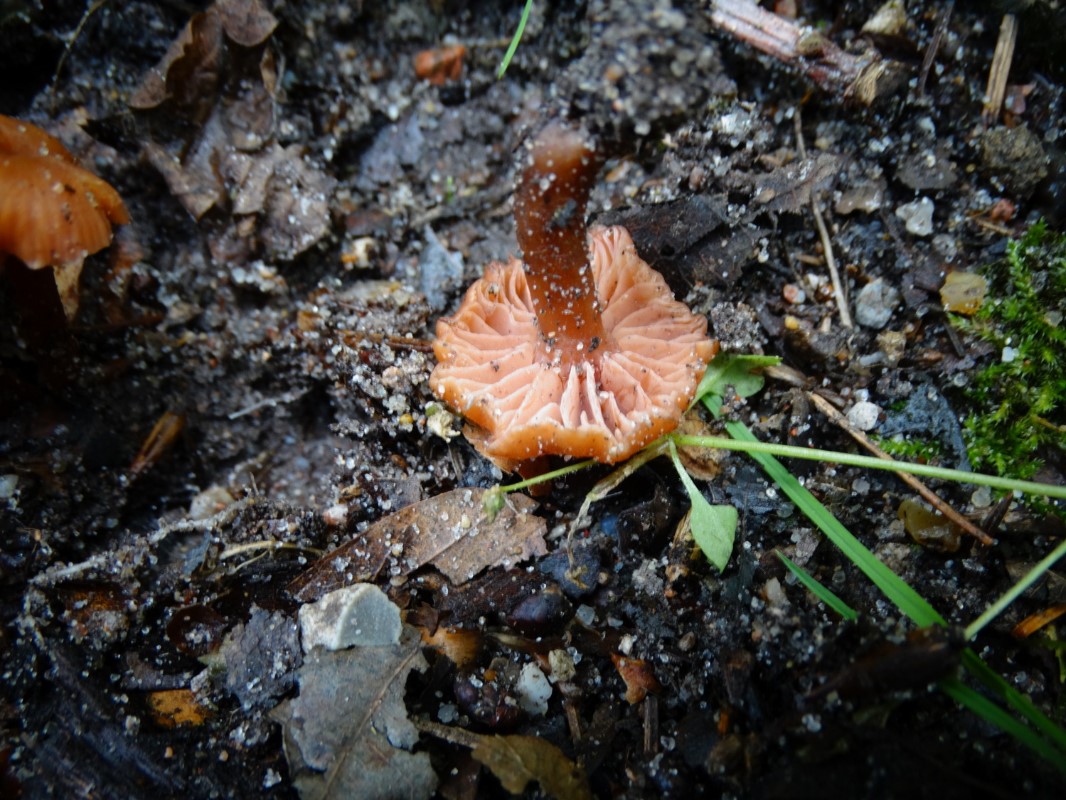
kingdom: Fungi
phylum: Basidiomycota
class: Agaricomycetes
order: Agaricales
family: Hydnangiaceae
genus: Laccaria
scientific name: Laccaria laccata
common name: rød ametysthat
